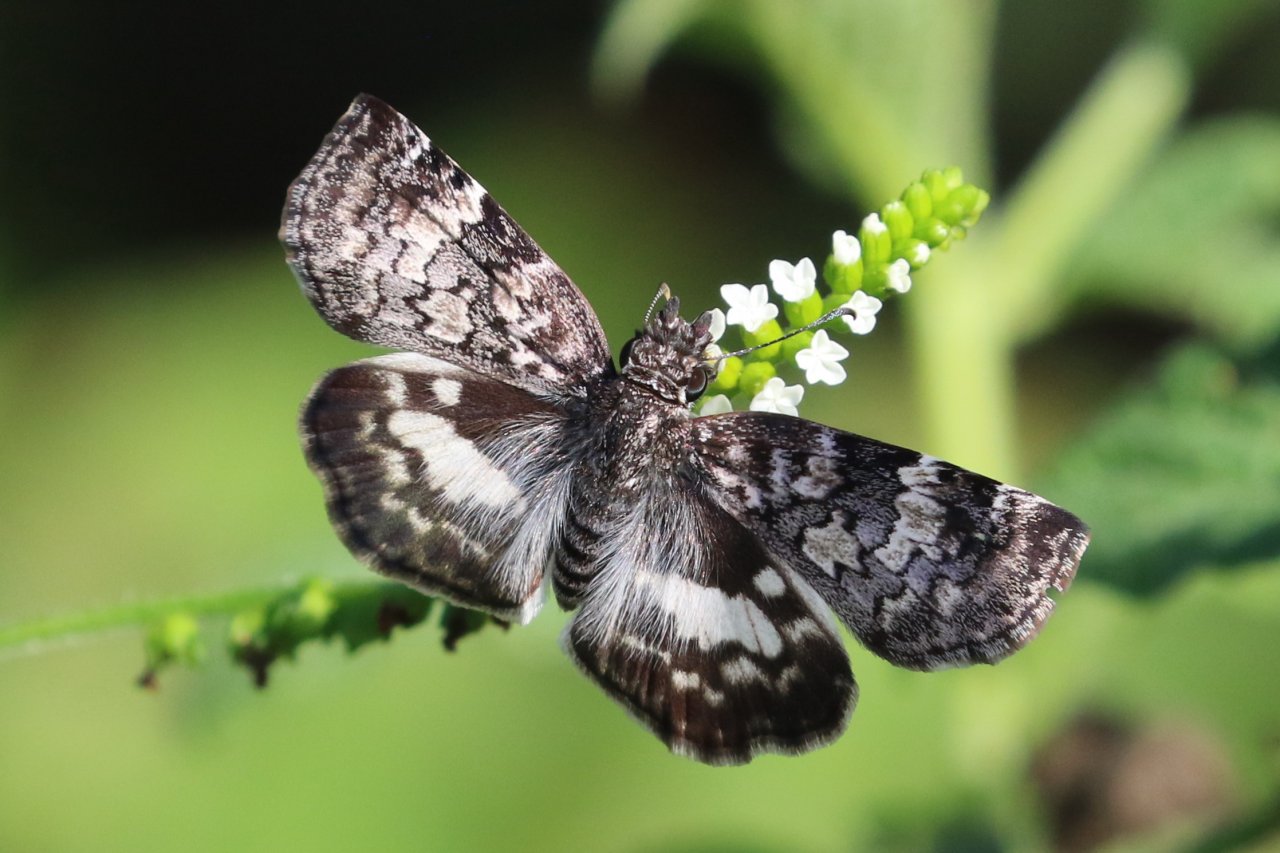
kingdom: Animalia
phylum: Arthropoda
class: Insecta
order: Lepidoptera
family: Hesperiidae
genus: Chiomara
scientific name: Chiomara asychis
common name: White-patched Skipper
